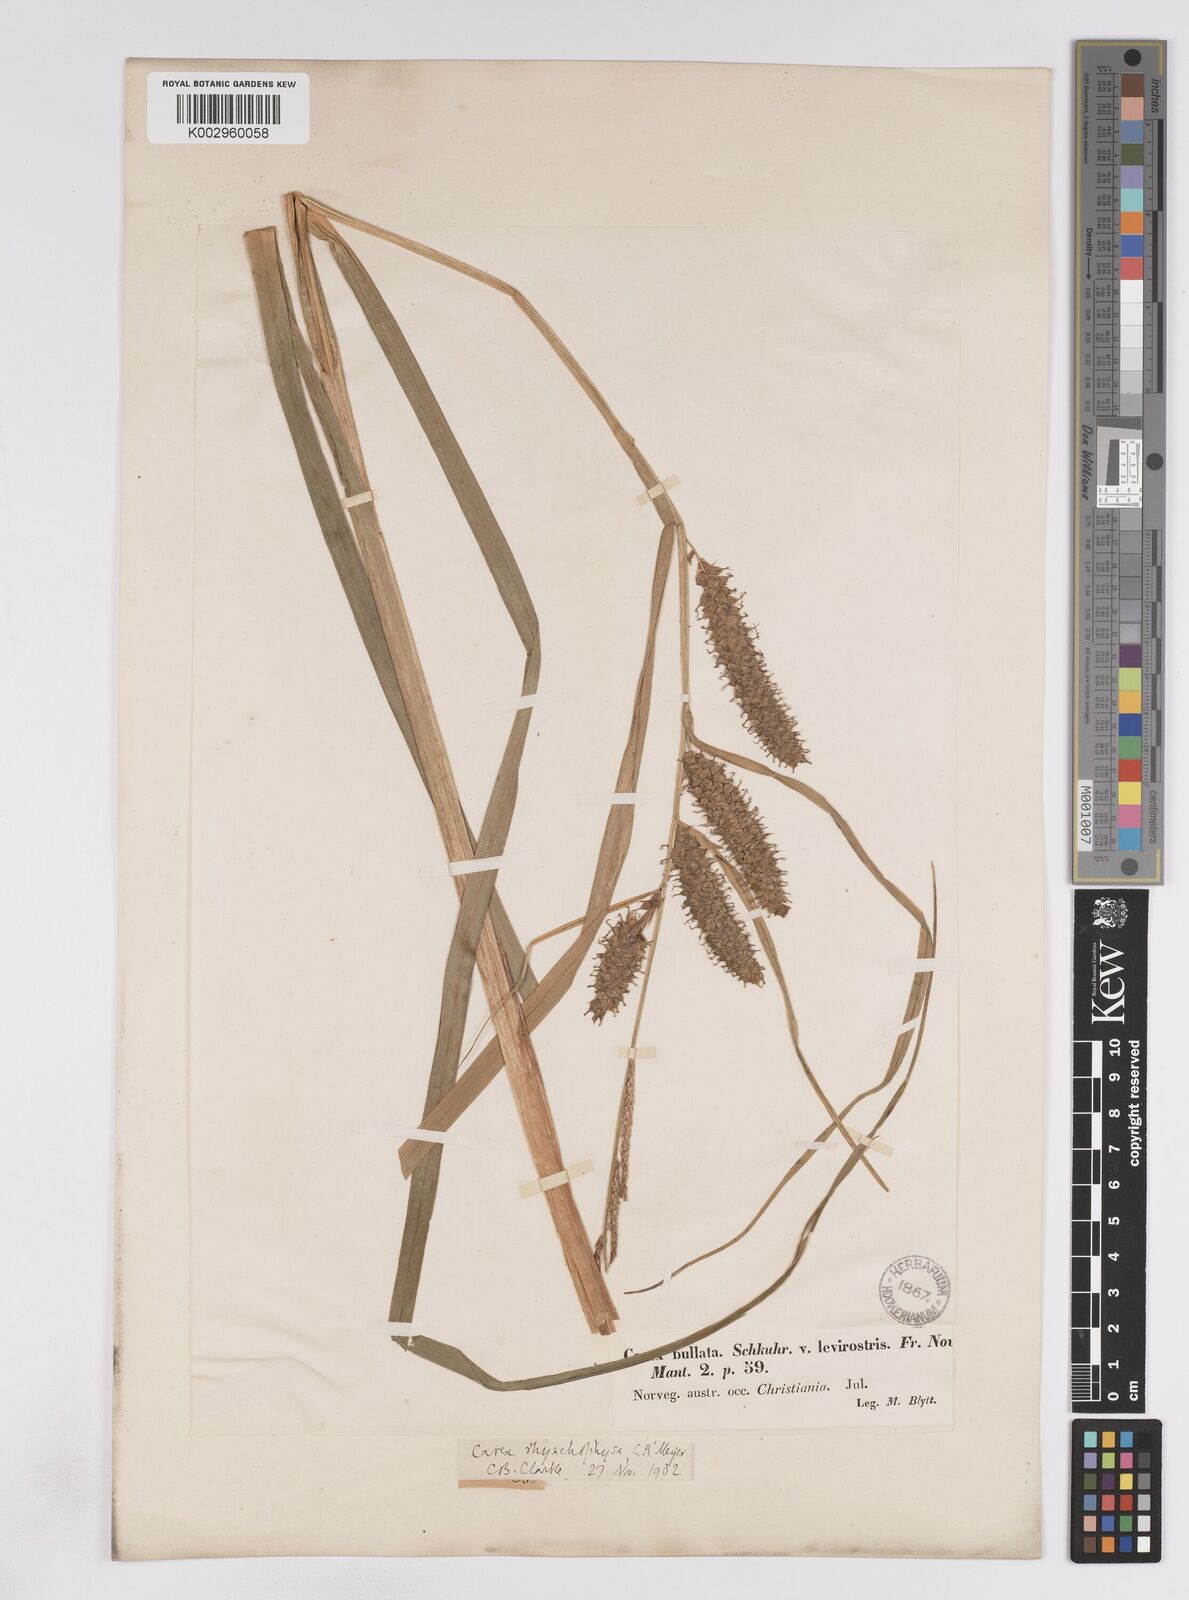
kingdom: Plantae
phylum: Tracheophyta
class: Liliopsida
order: Poales
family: Cyperaceae
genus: Carex
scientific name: Carex utriculata
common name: Beaked sedge
